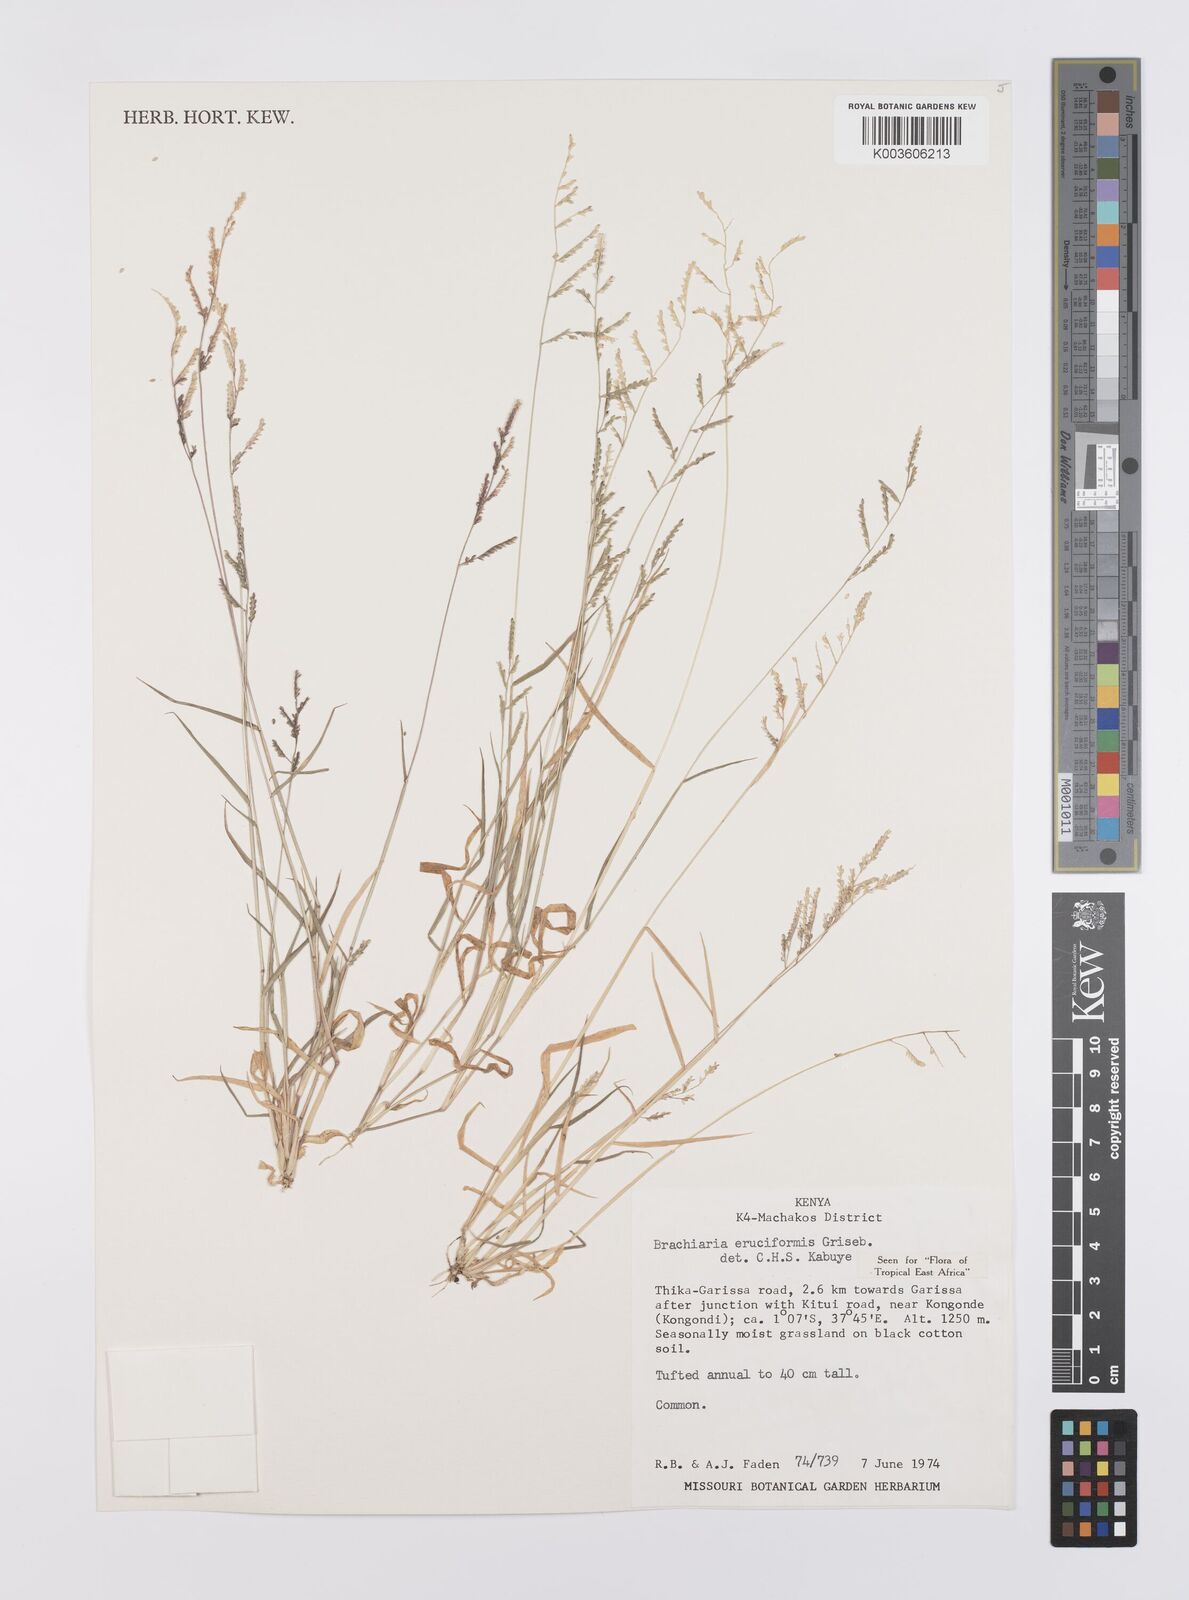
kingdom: Plantae
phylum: Tracheophyta
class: Liliopsida
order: Poales
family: Poaceae
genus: Moorochloa
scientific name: Moorochloa eruciformis
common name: Sweet signalgrass
